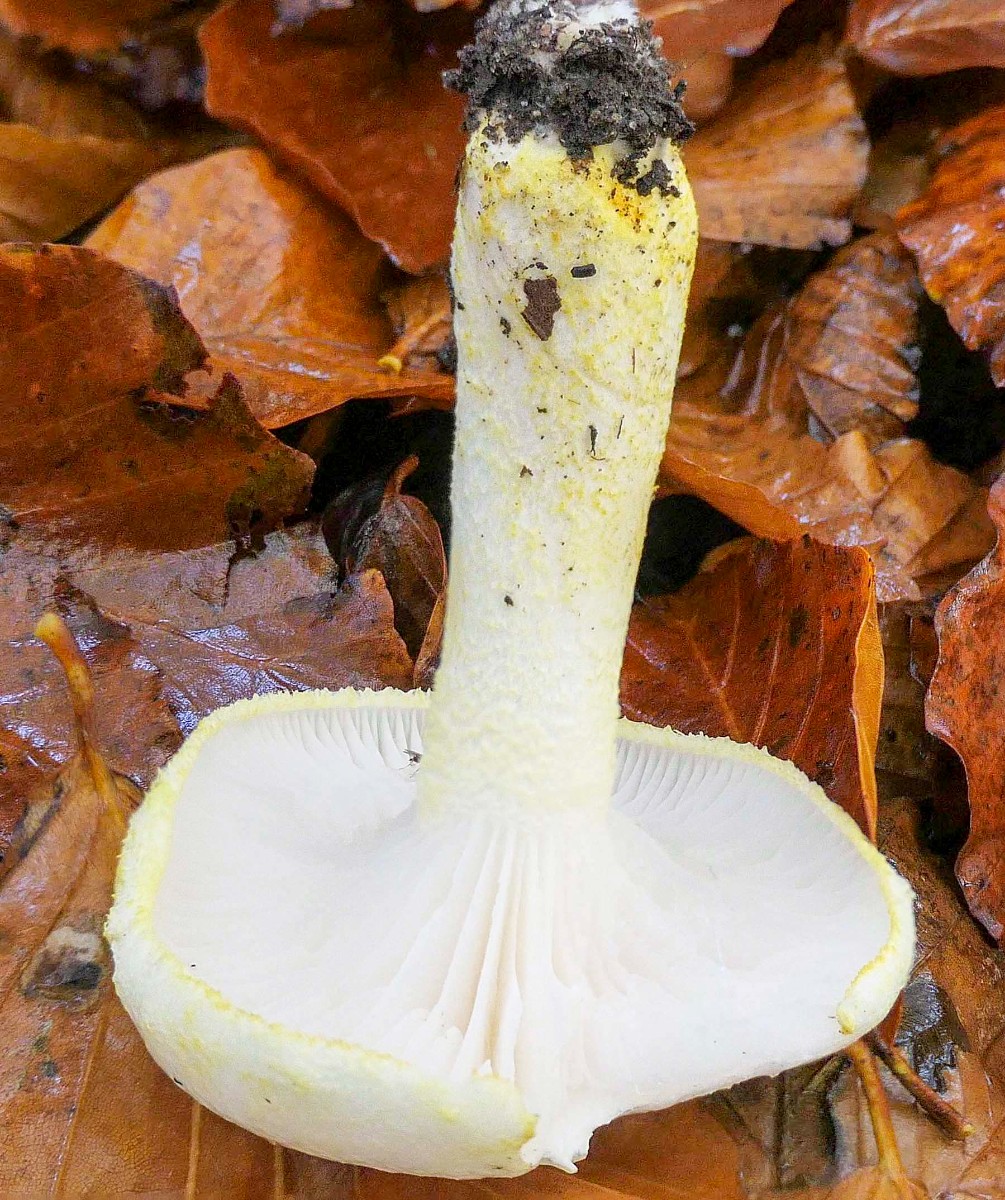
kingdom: Fungi
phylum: Basidiomycota
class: Agaricomycetes
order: Agaricales
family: Hygrophoraceae
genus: Hygrophorus
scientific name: Hygrophorus chrysodon
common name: gulfnugget sneglehat
